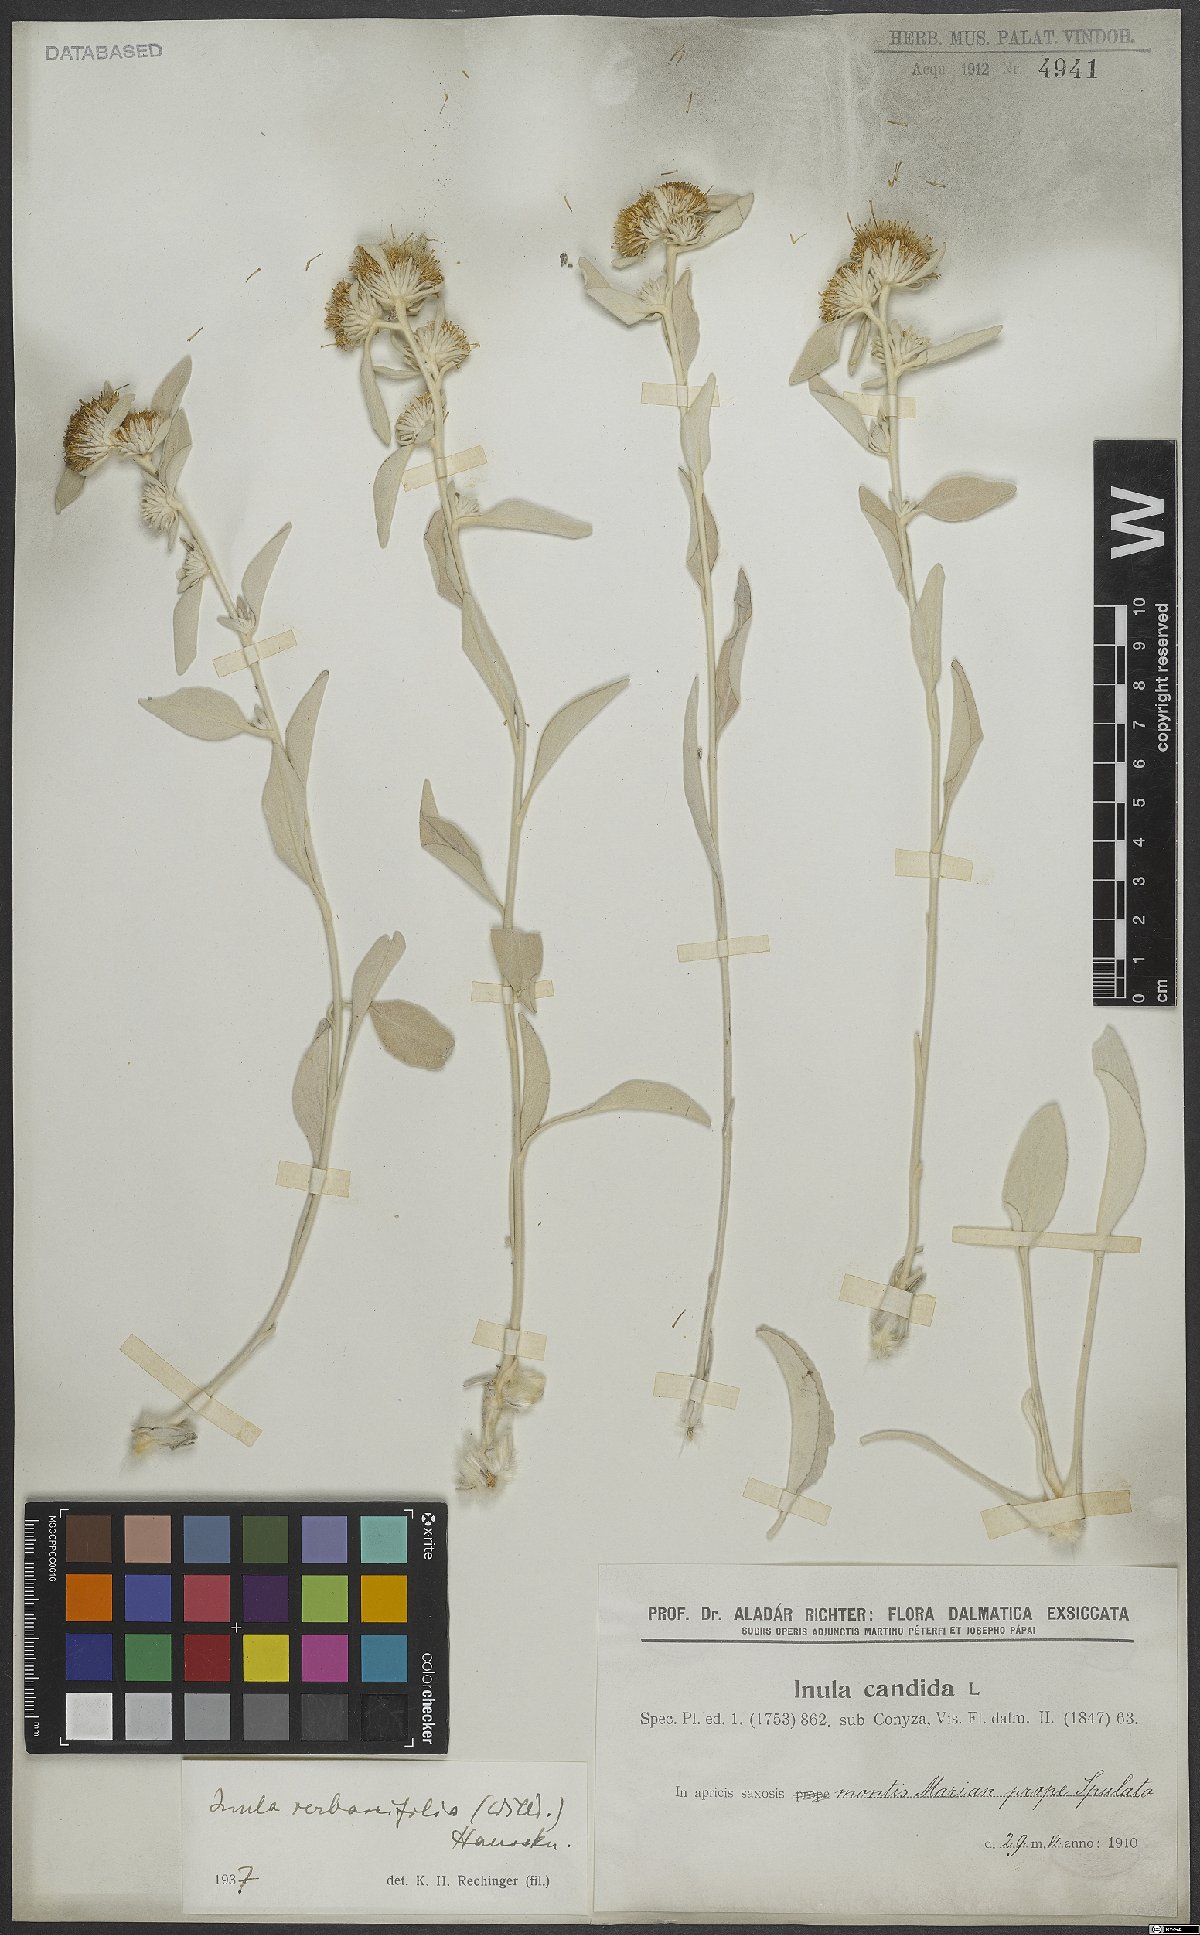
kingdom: Plantae
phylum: Tracheophyta
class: Magnoliopsida
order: Asterales
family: Asteraceae
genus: Pentanema
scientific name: Pentanema verbascifolium
